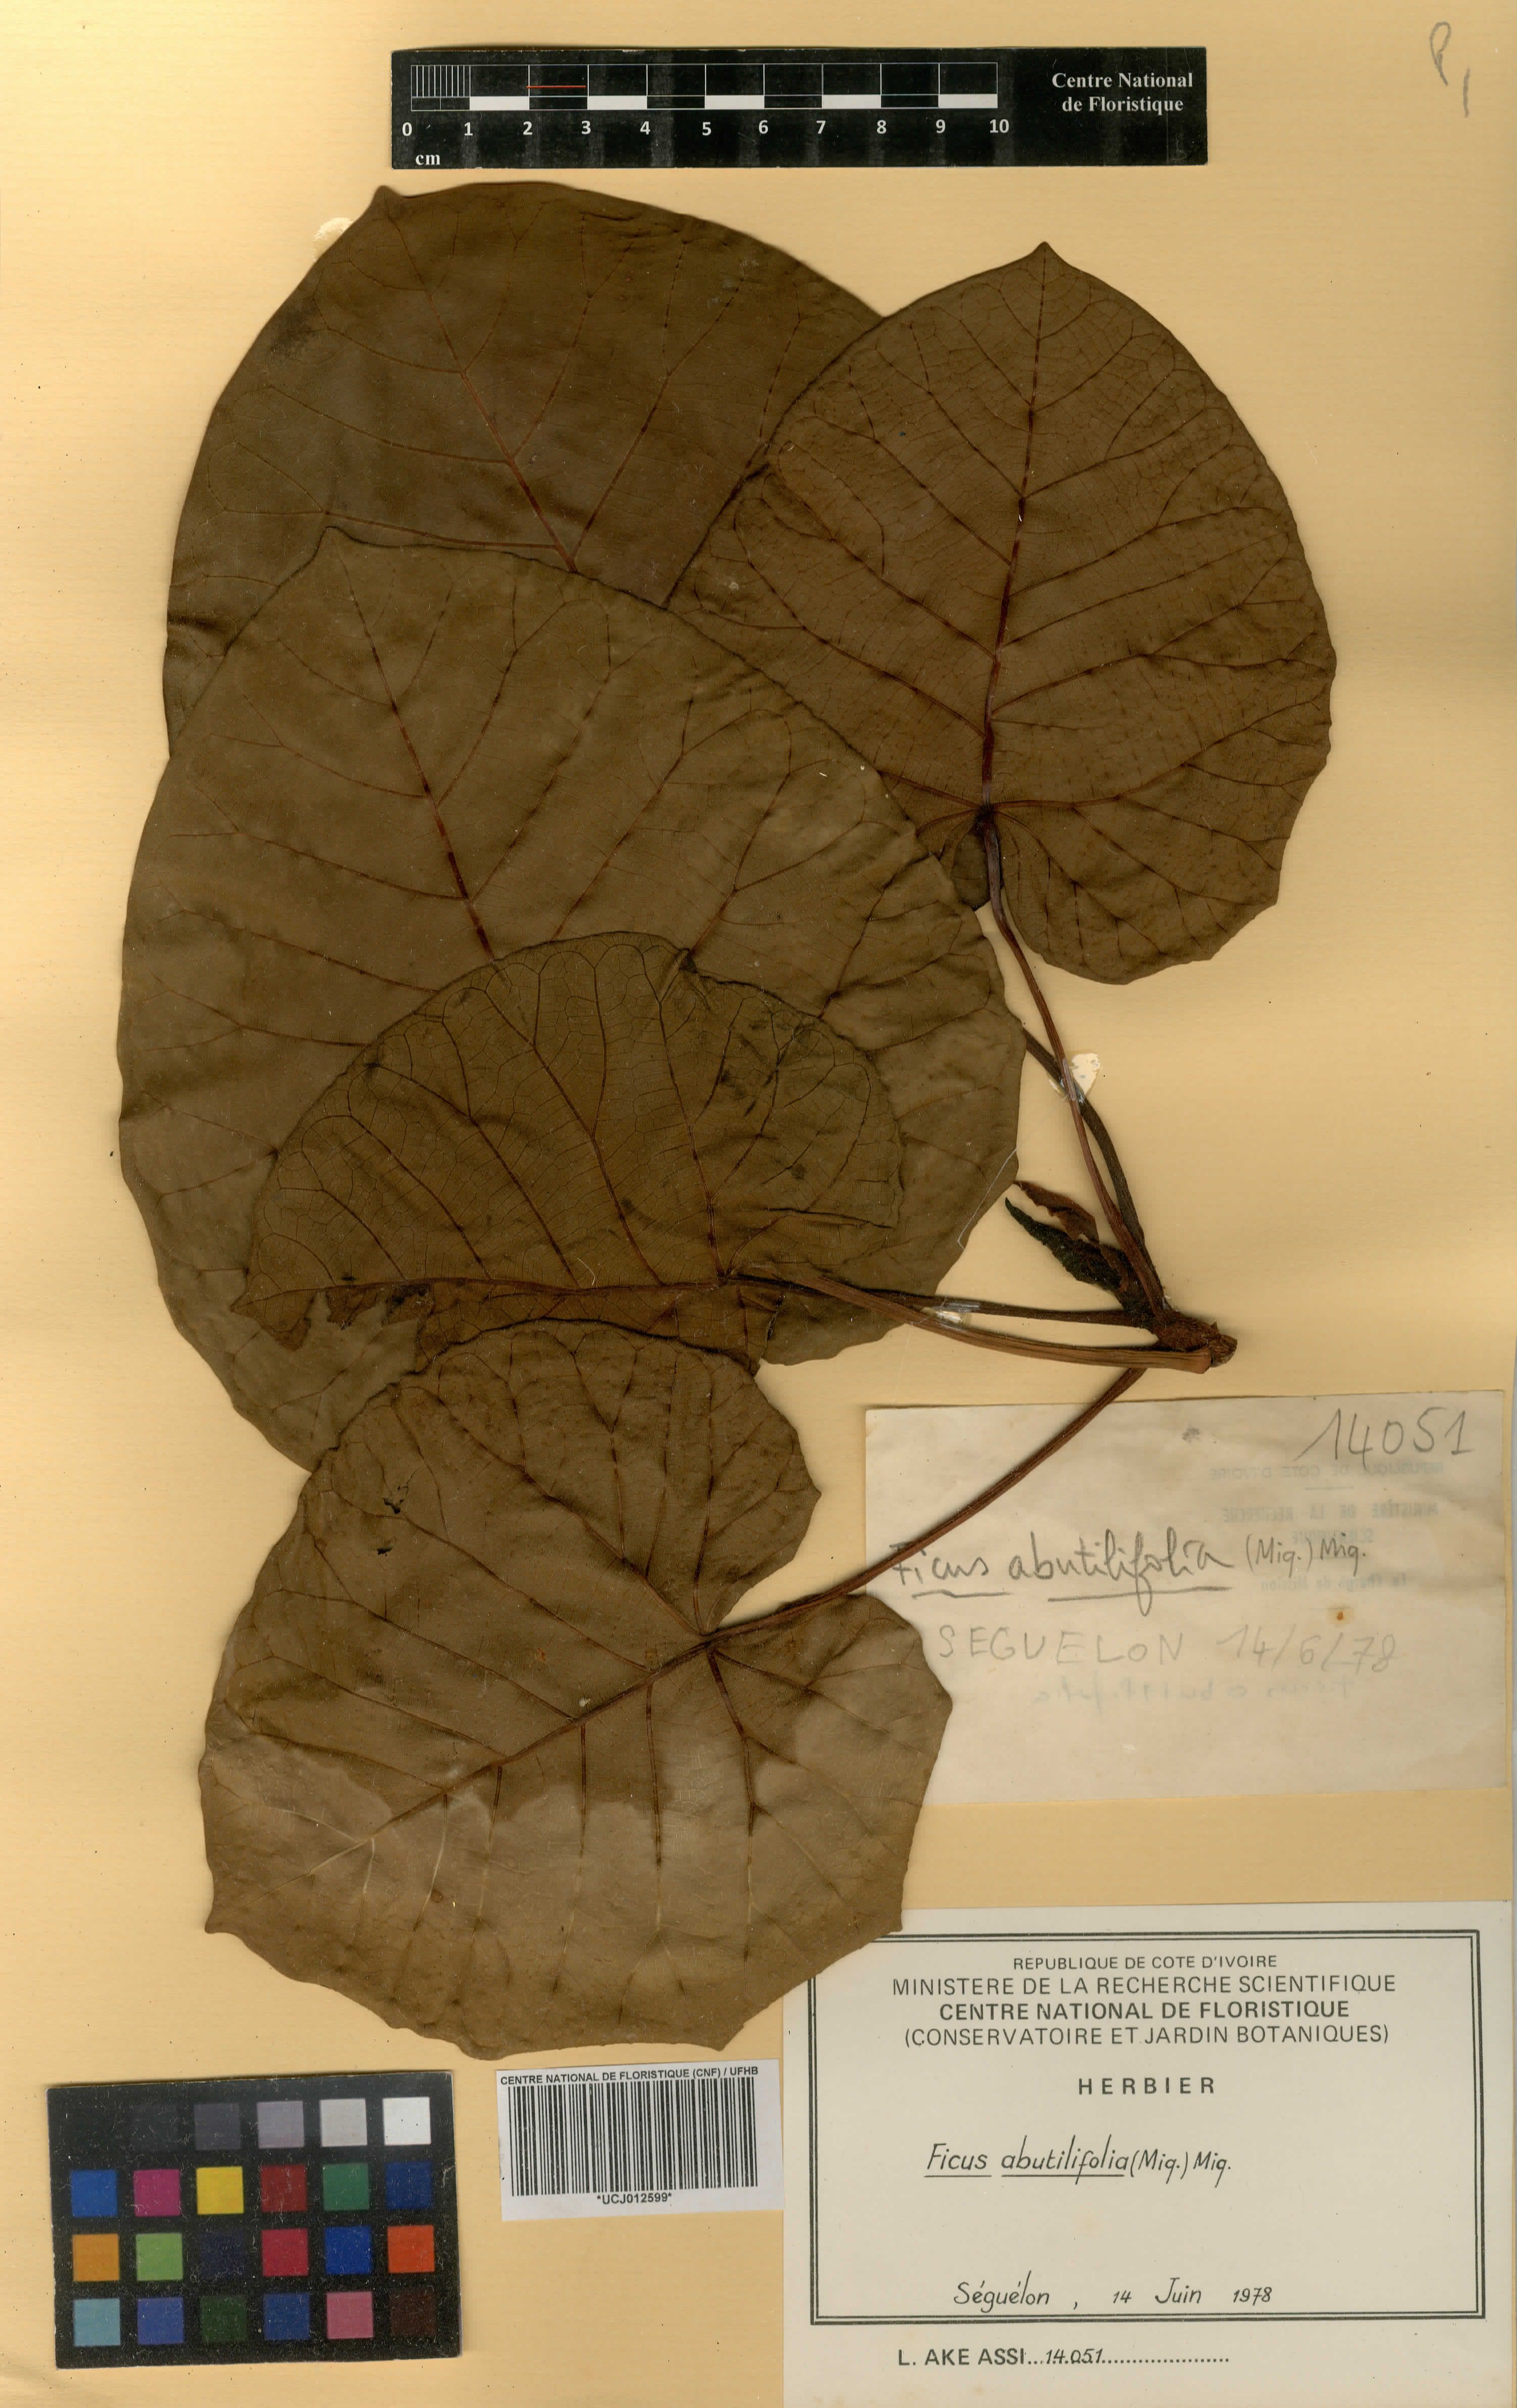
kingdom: Plantae
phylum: Tracheophyta
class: Magnoliopsida
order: Rosales
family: Moraceae
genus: Ficus
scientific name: Ficus abutilifolia
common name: Large-leaved rock fig
